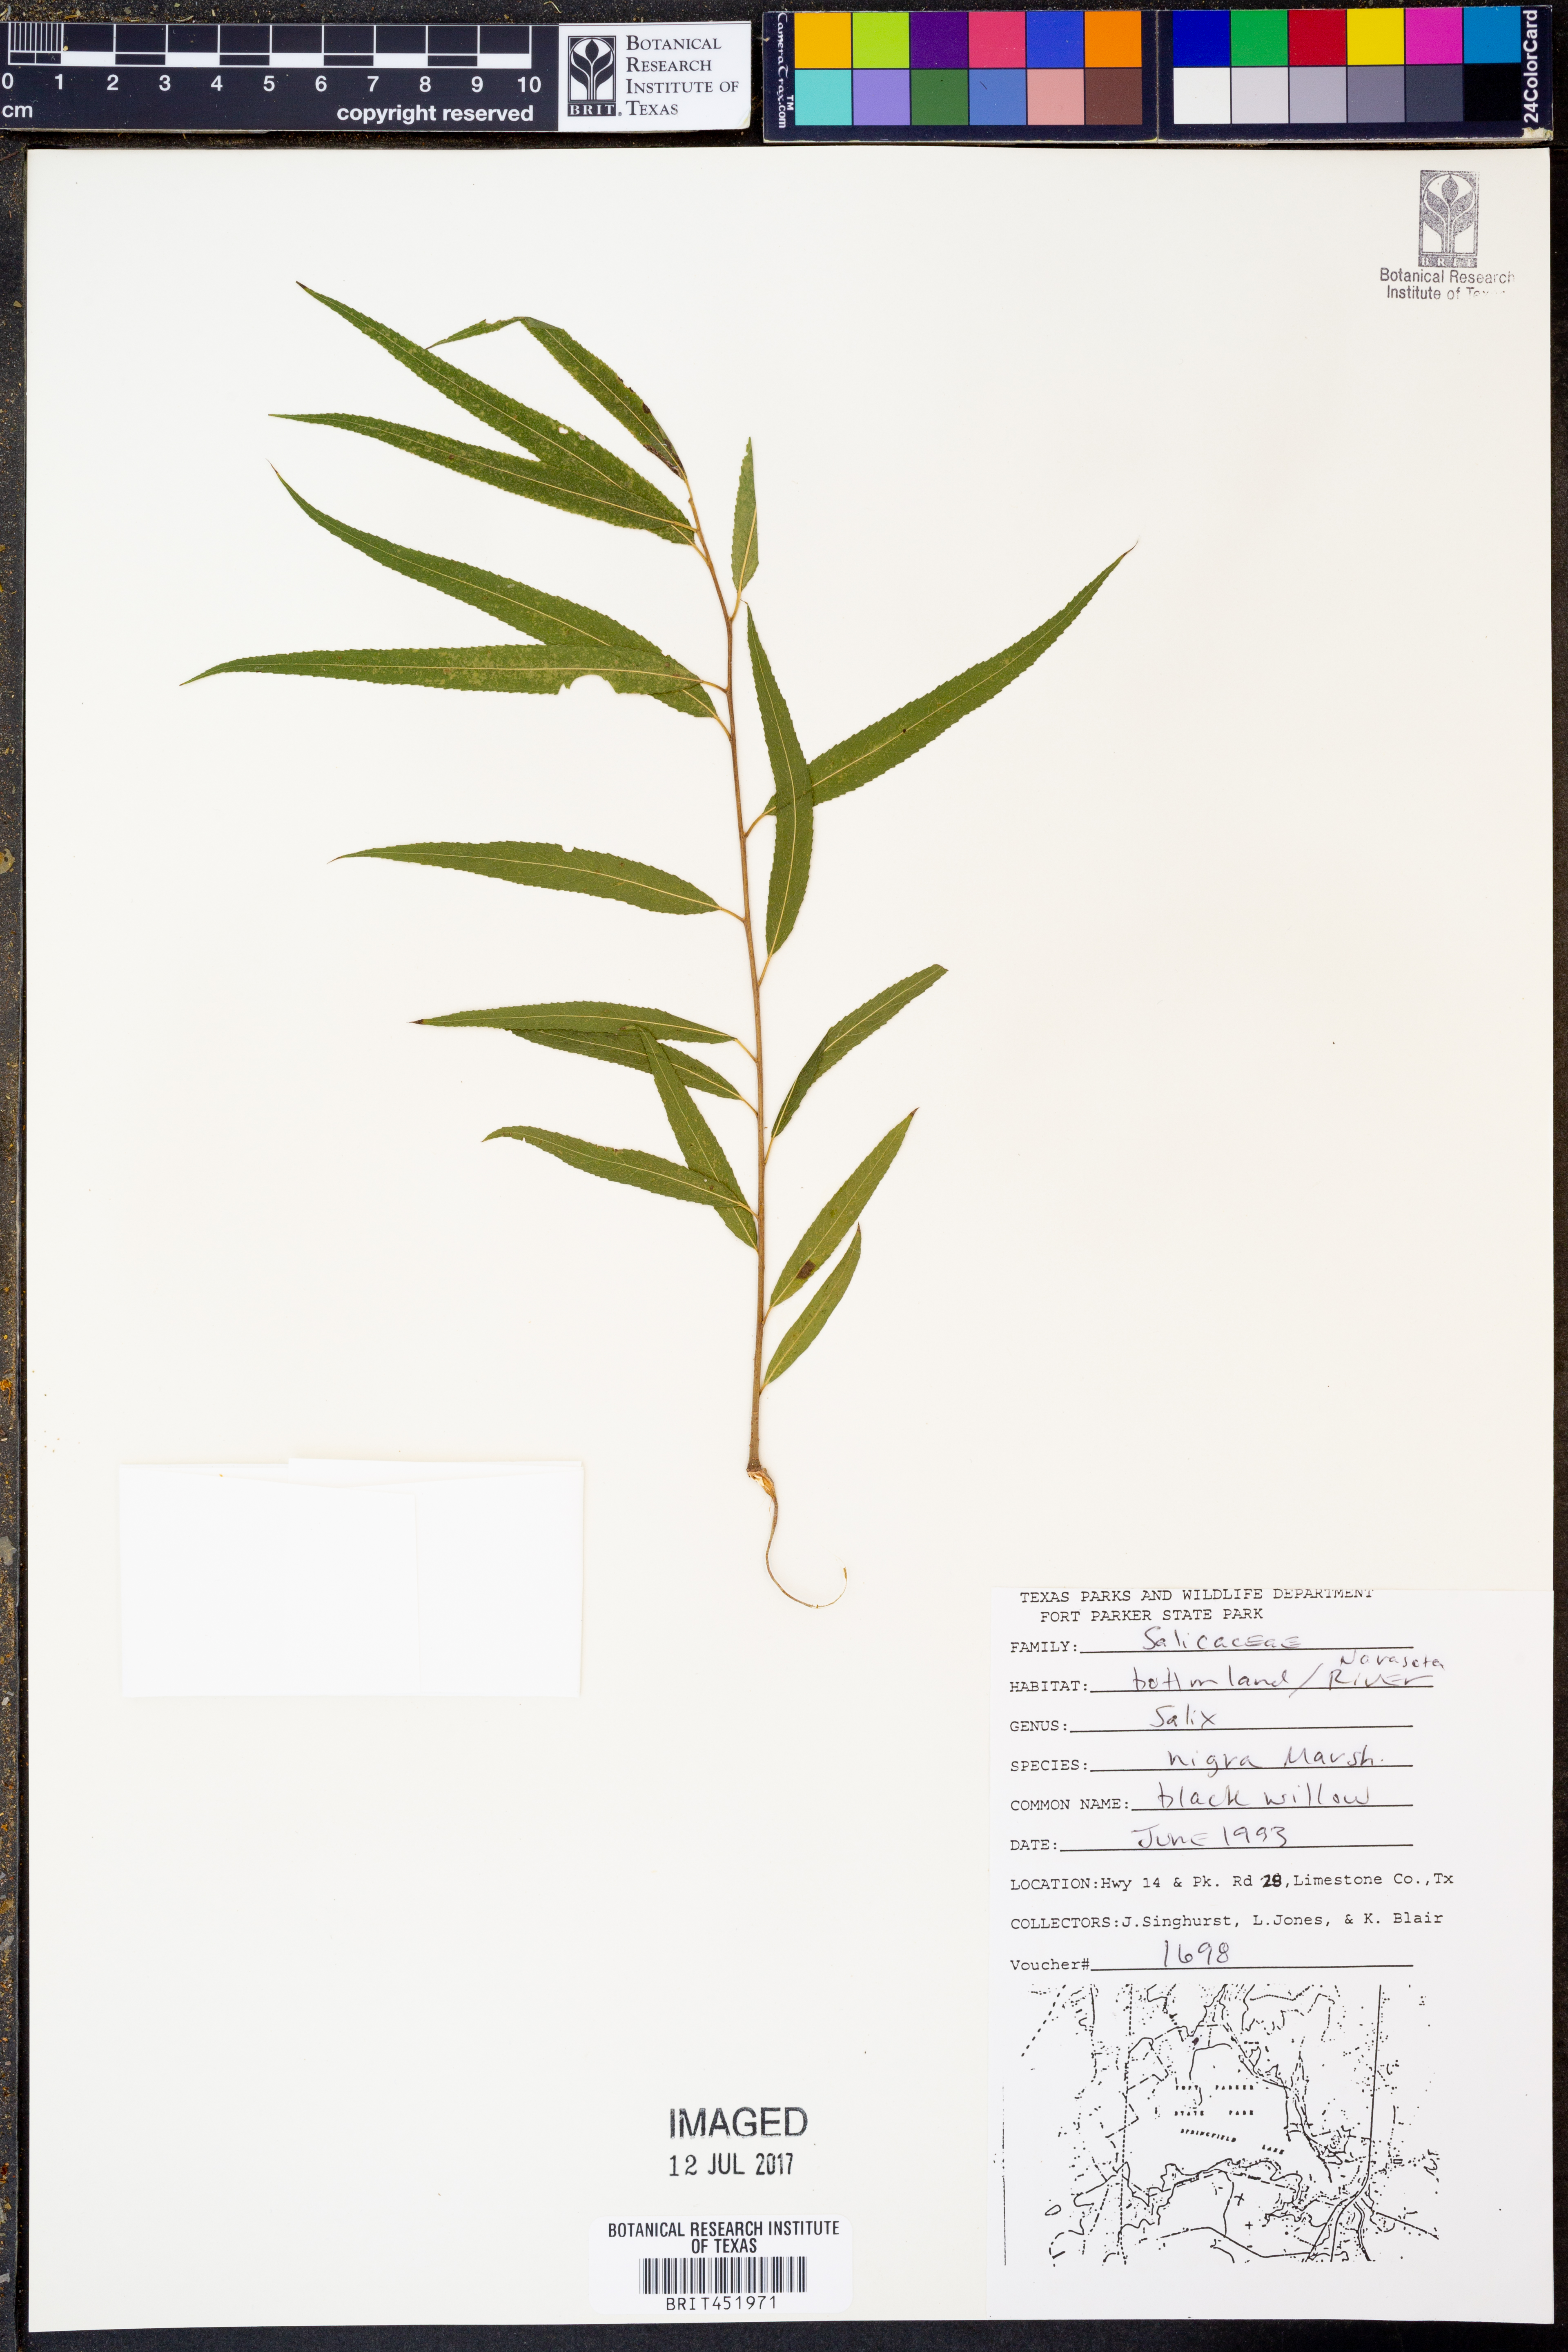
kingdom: Plantae
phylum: Tracheophyta
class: Magnoliopsida
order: Malpighiales
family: Salicaceae
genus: Salix
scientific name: Salix nigra
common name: Black willow
